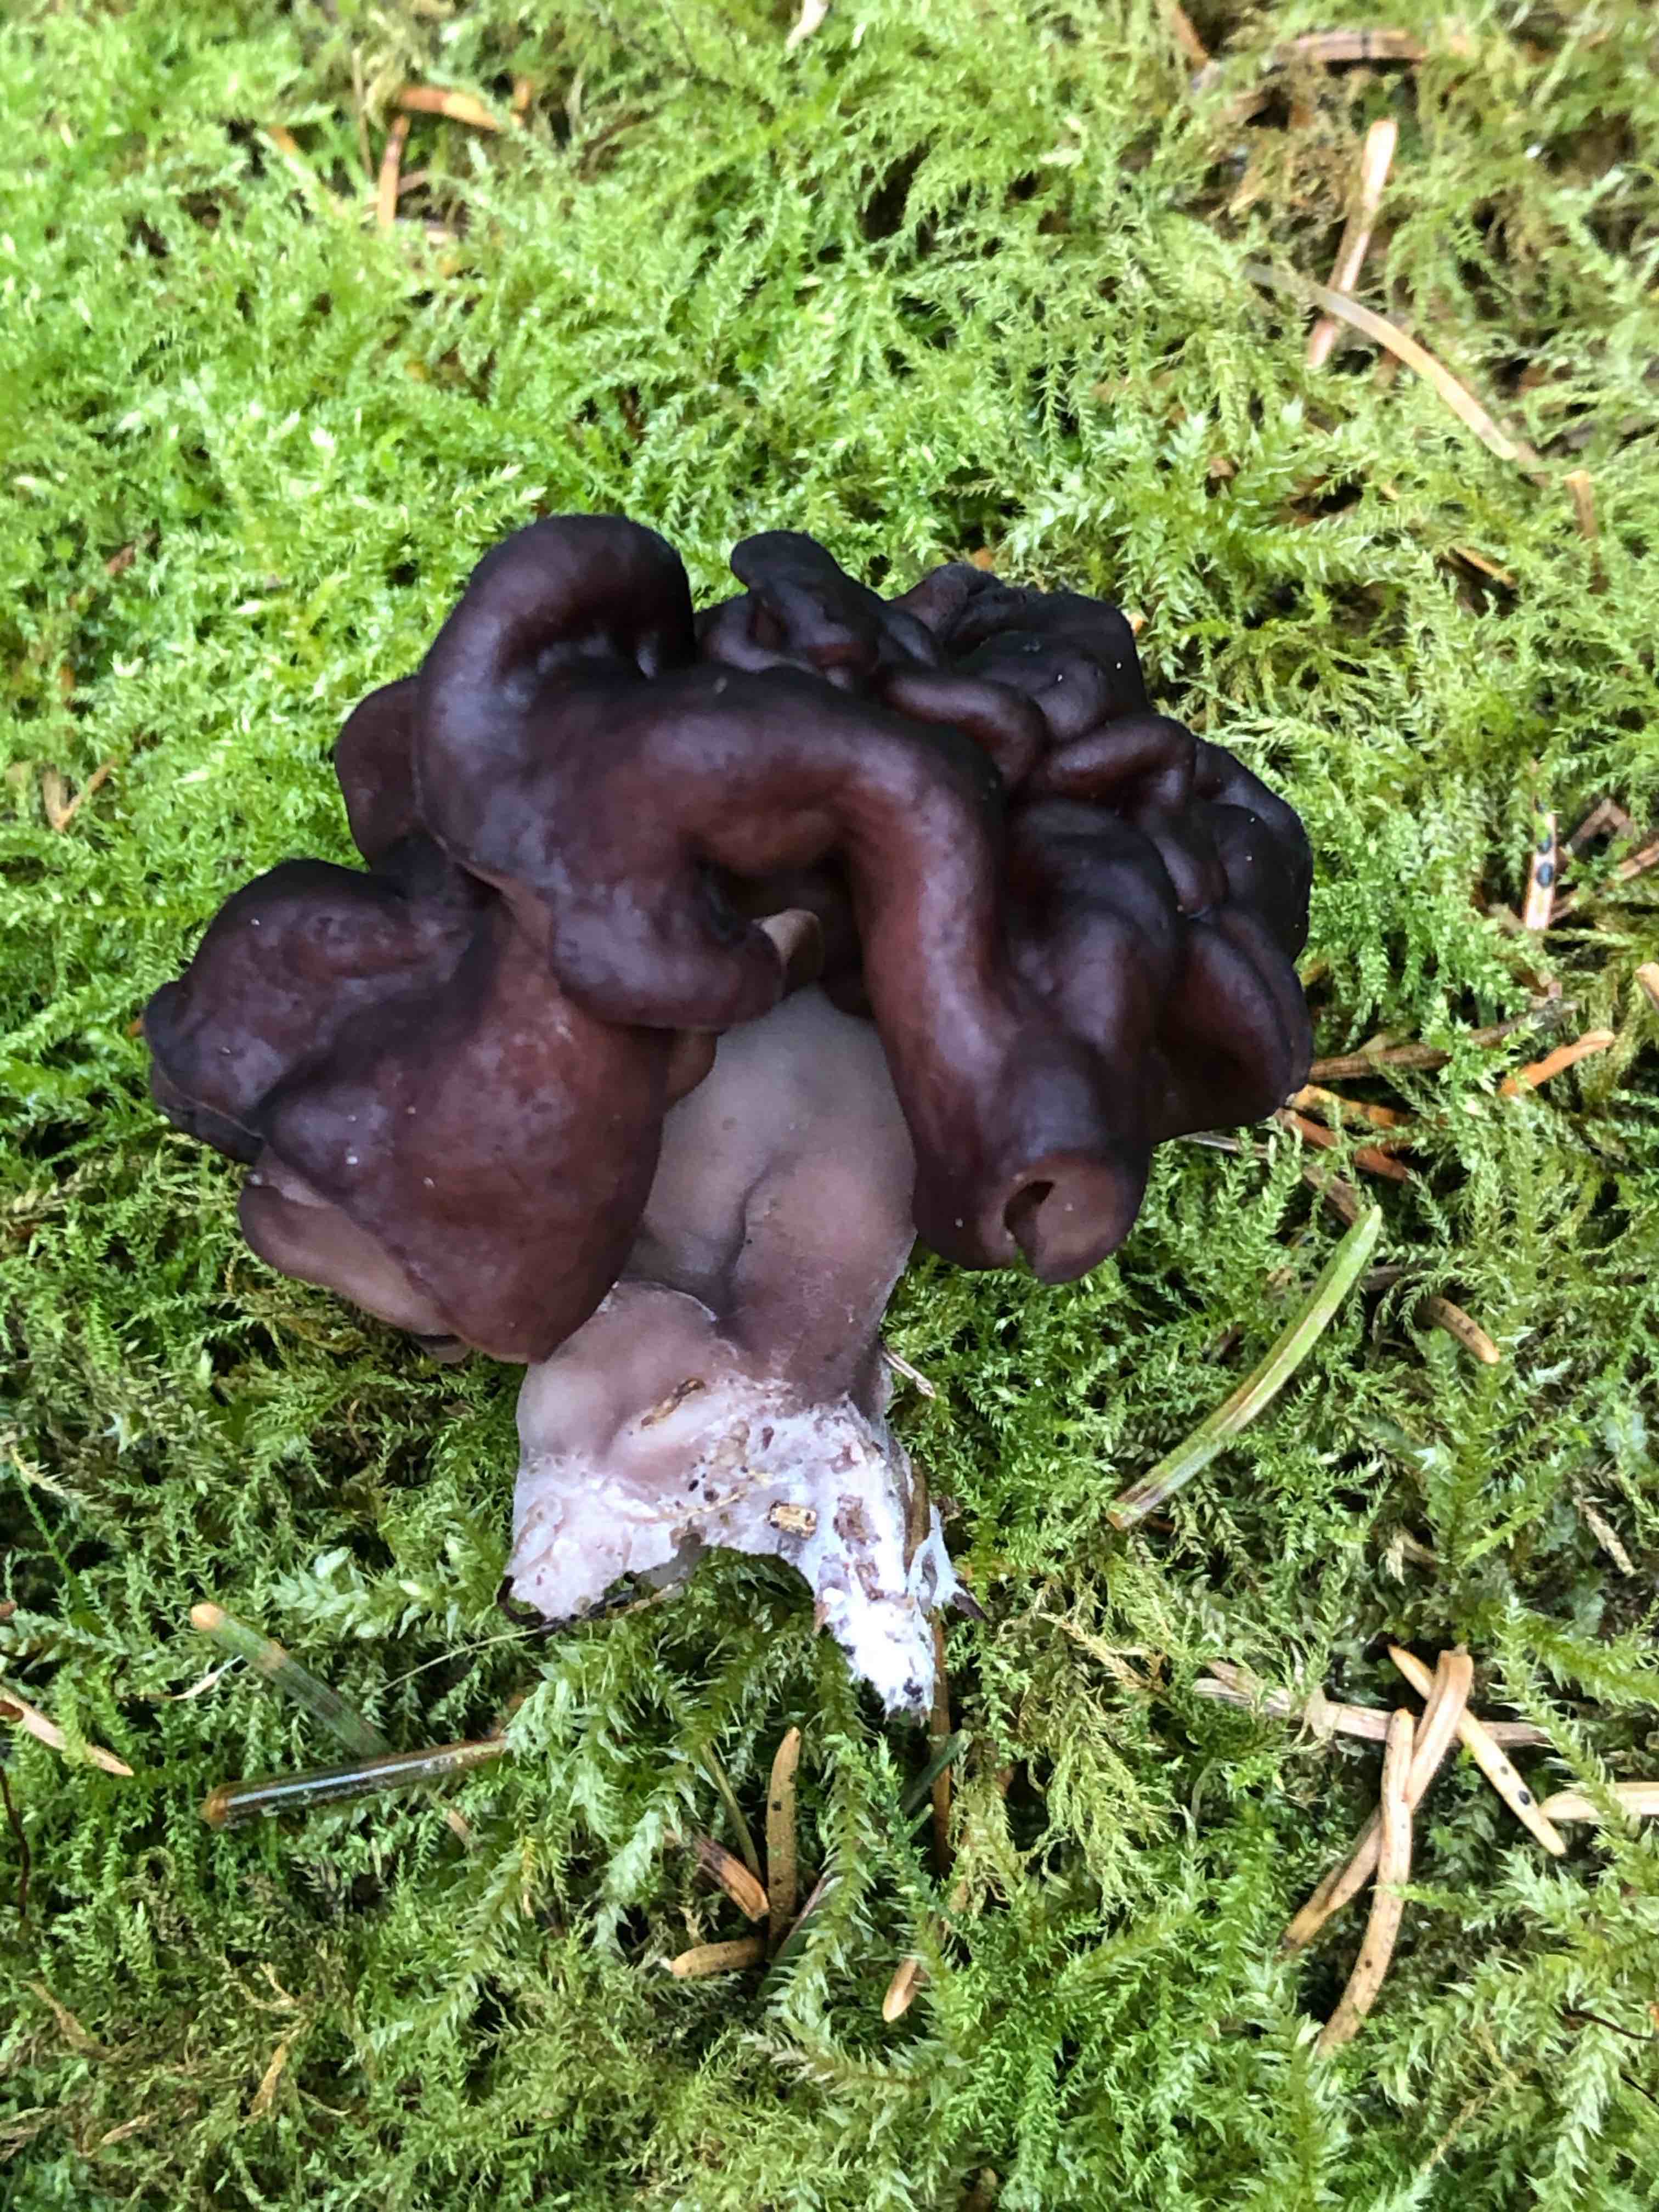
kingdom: Fungi
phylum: Ascomycota
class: Pezizomycetes
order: Pezizales
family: Discinaceae
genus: Gyromitra
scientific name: Gyromitra esculenta
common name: ægte stenmorkel
